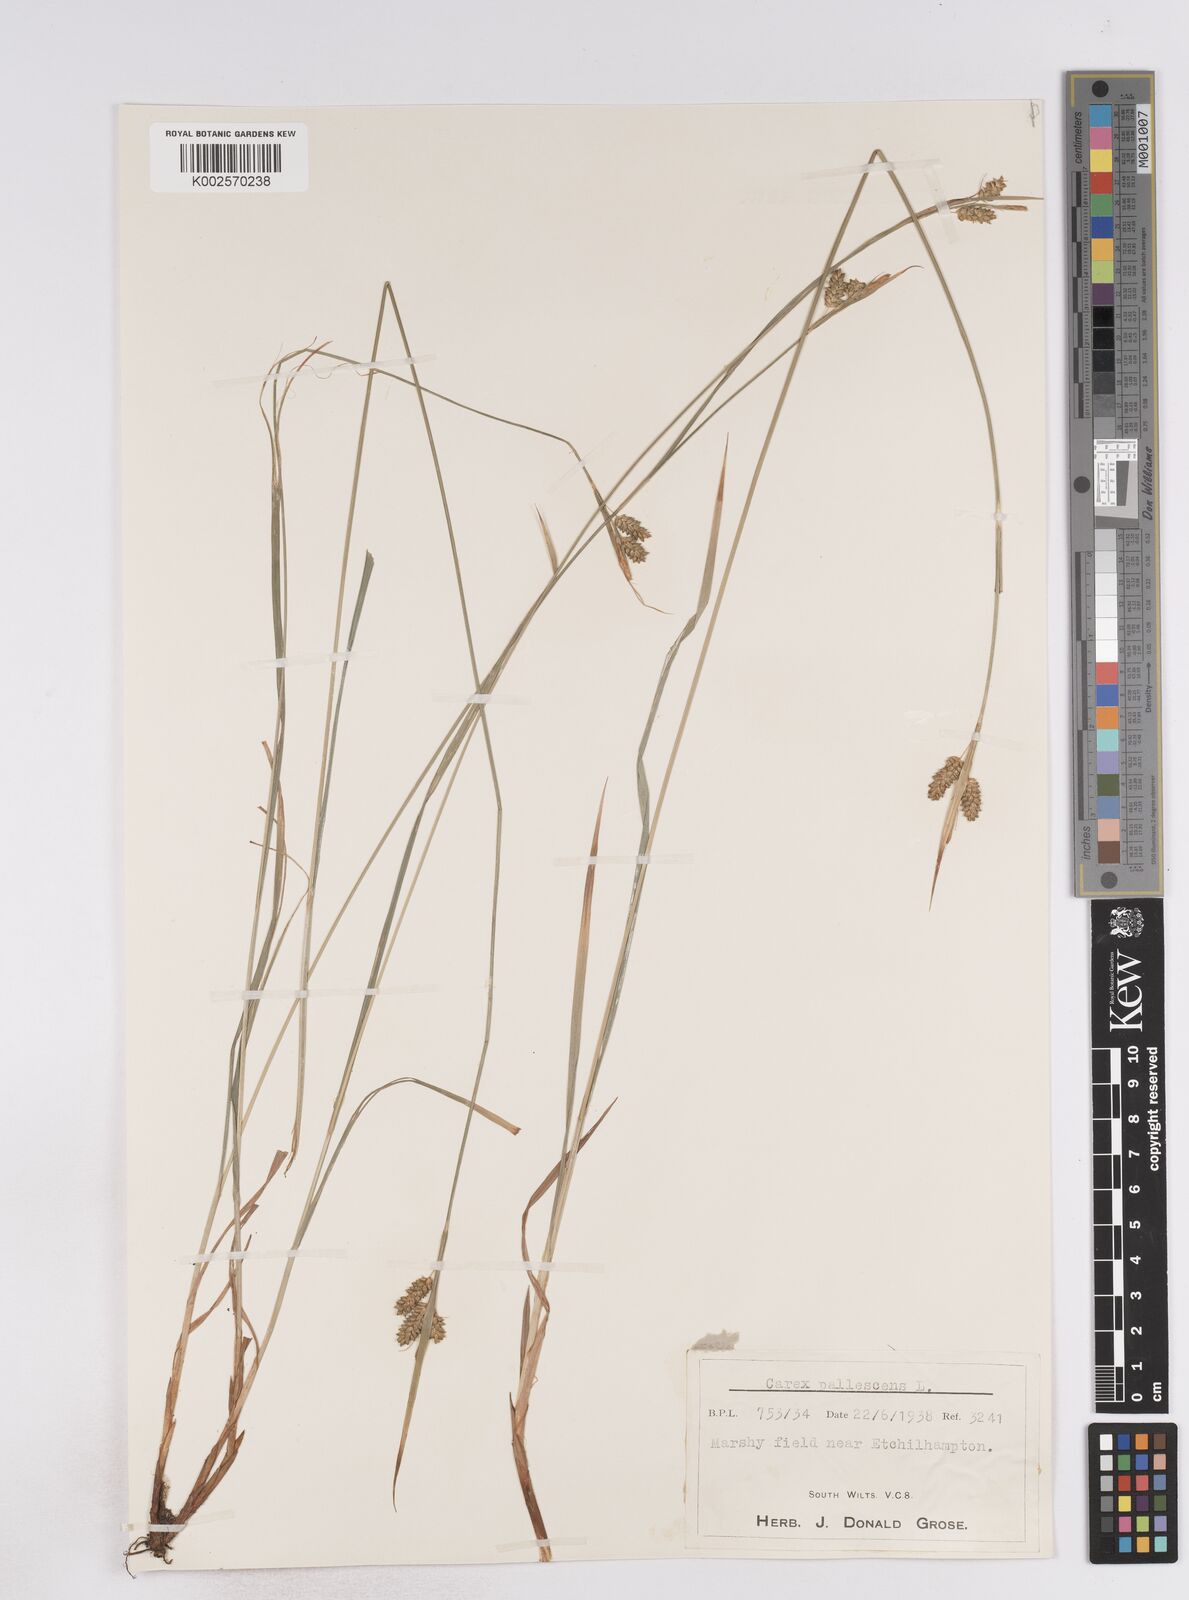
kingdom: Plantae
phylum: Tracheophyta
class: Liliopsida
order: Poales
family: Cyperaceae
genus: Carex
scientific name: Carex pallescens
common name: Pale sedge
